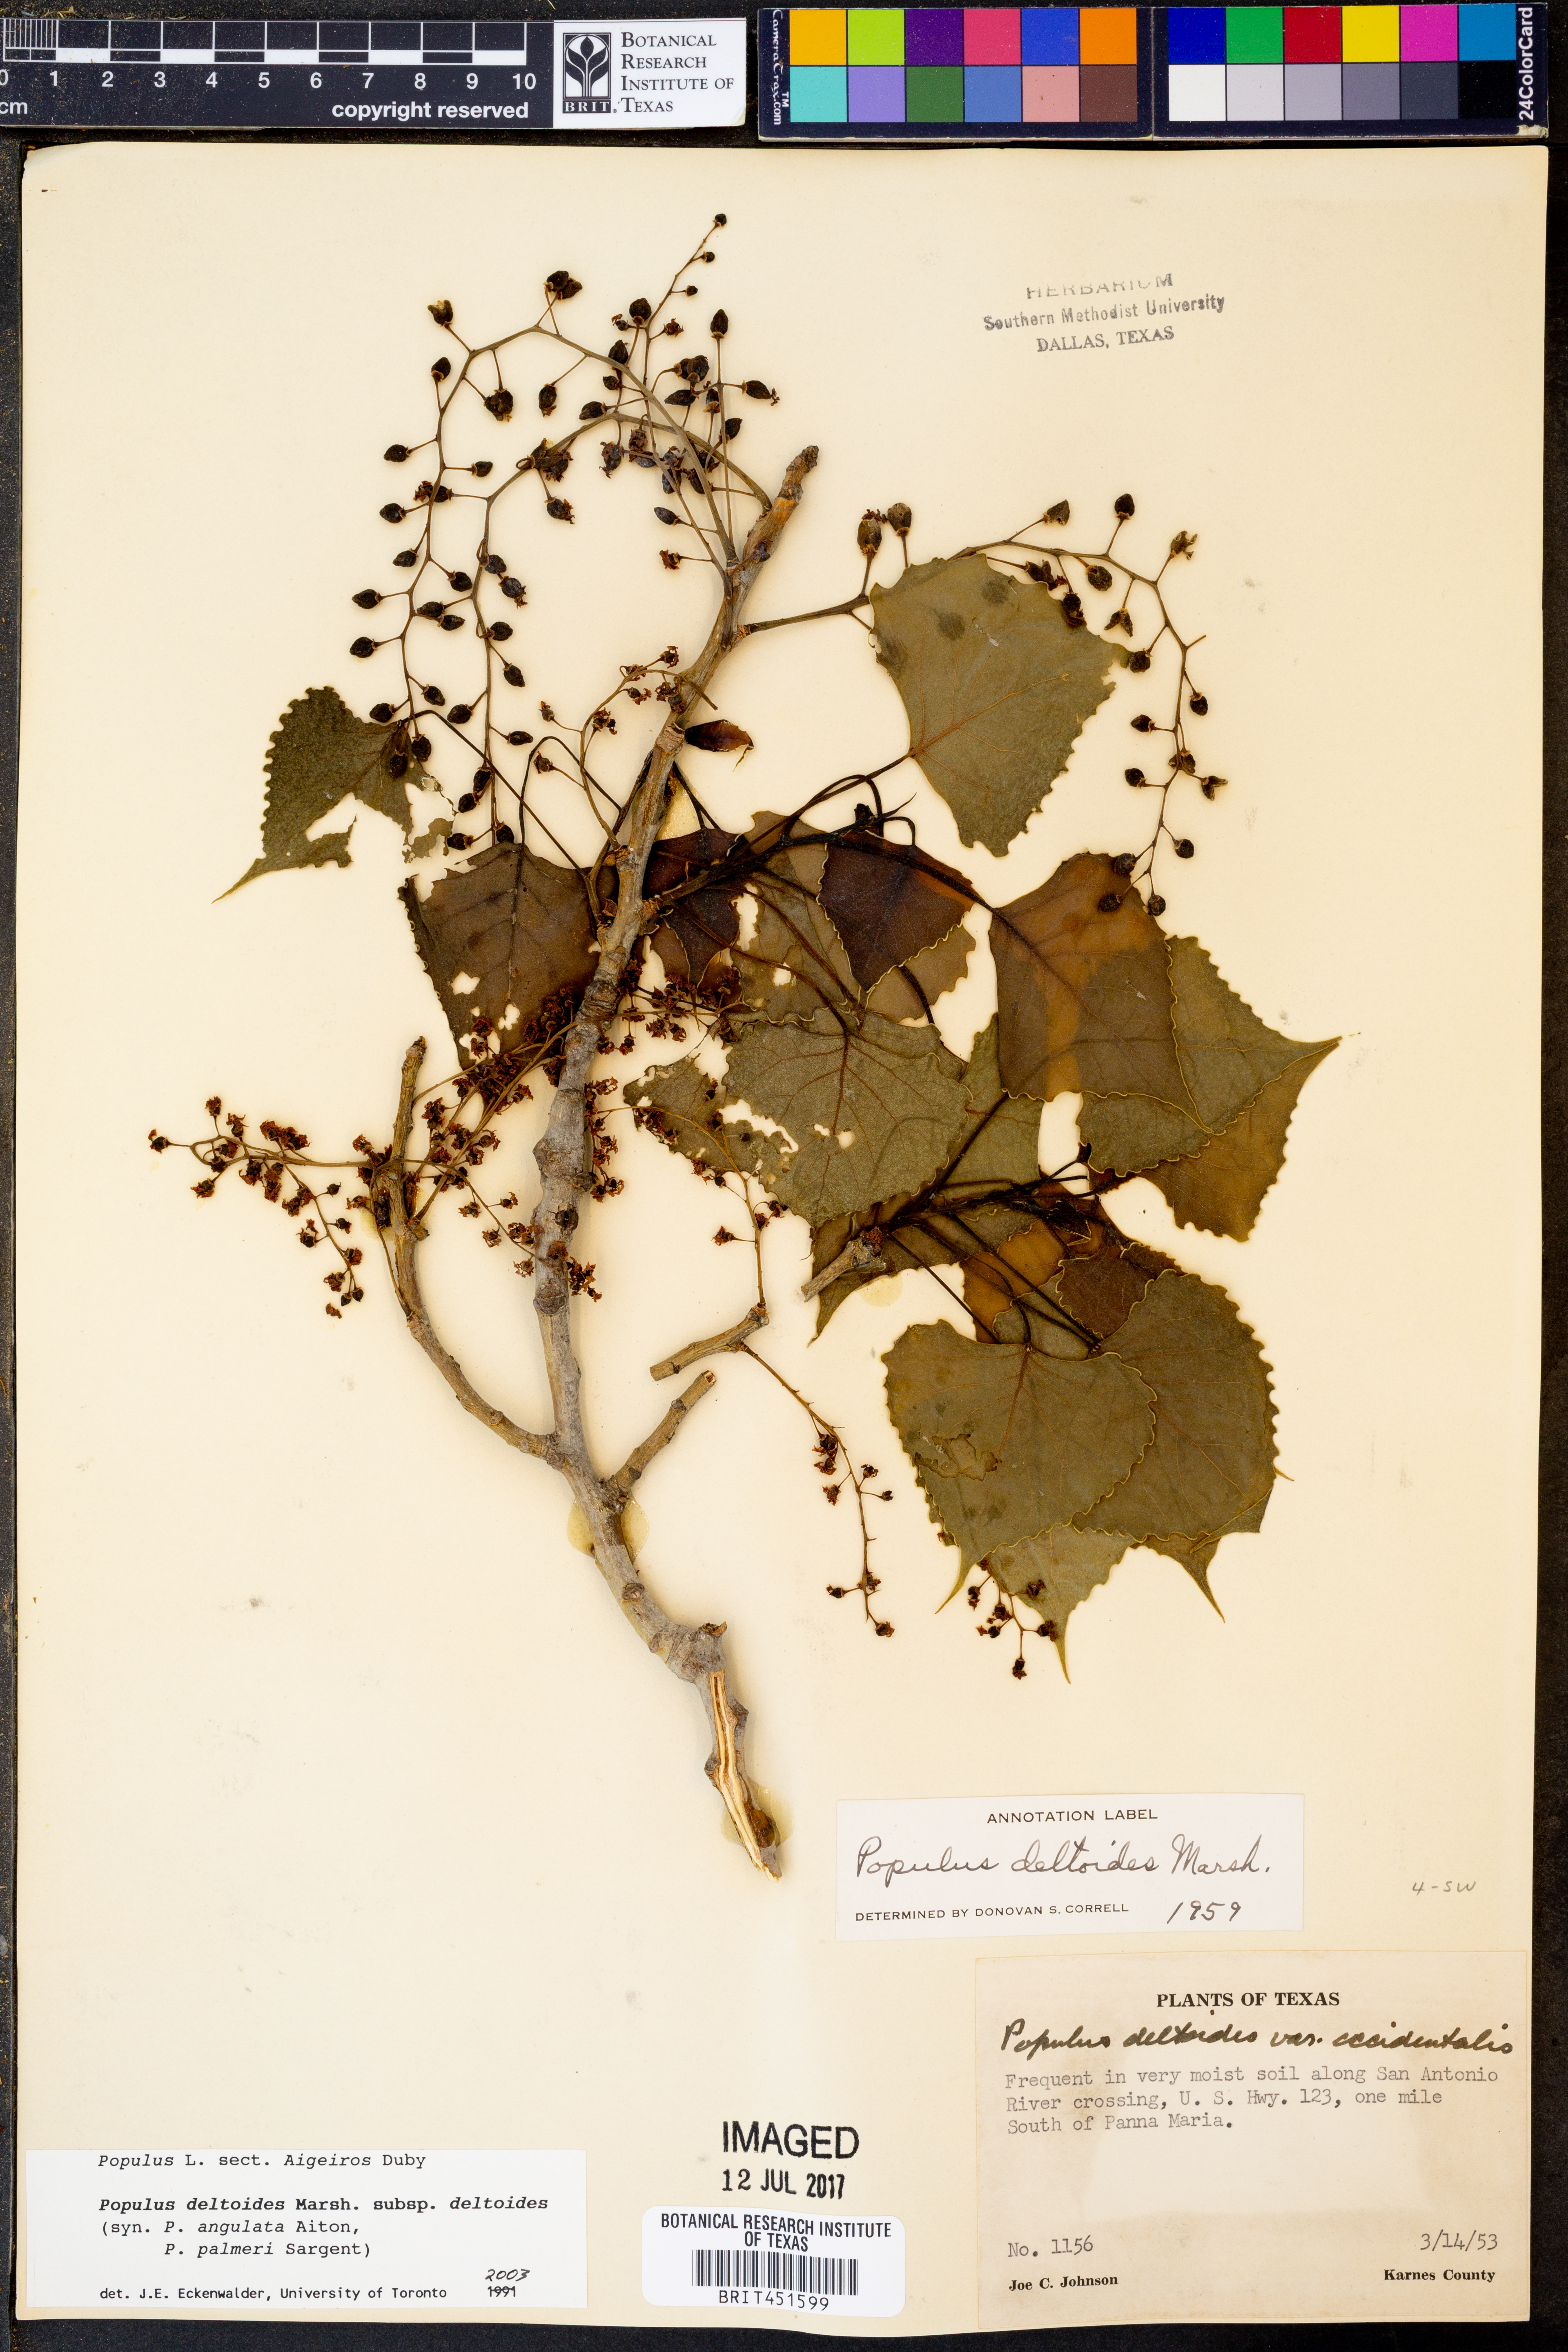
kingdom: Plantae
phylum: Tracheophyta
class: Magnoliopsida
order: Malpighiales
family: Salicaceae
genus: Populus
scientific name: Populus deltoides
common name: Eastern cottonwood
